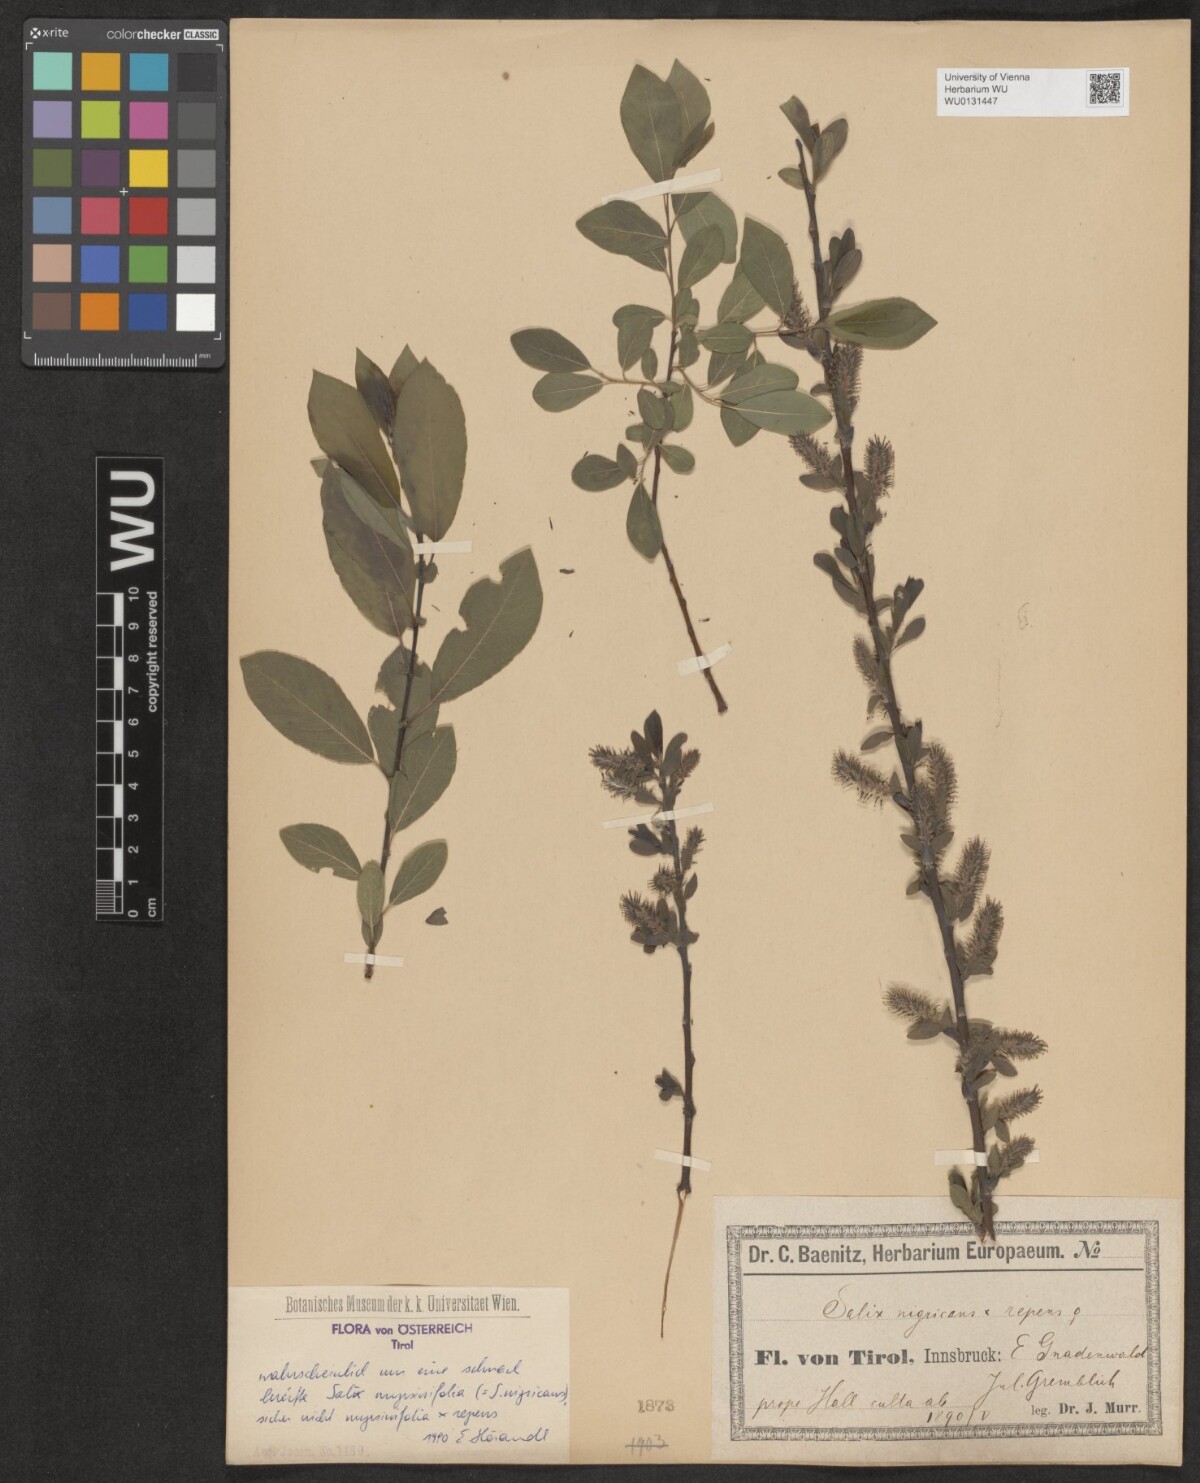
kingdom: Plantae
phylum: Tracheophyta
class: Magnoliopsida
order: Malpighiales
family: Salicaceae
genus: Salix
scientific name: Salix myrsinifolia
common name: Dark-leaved willow
